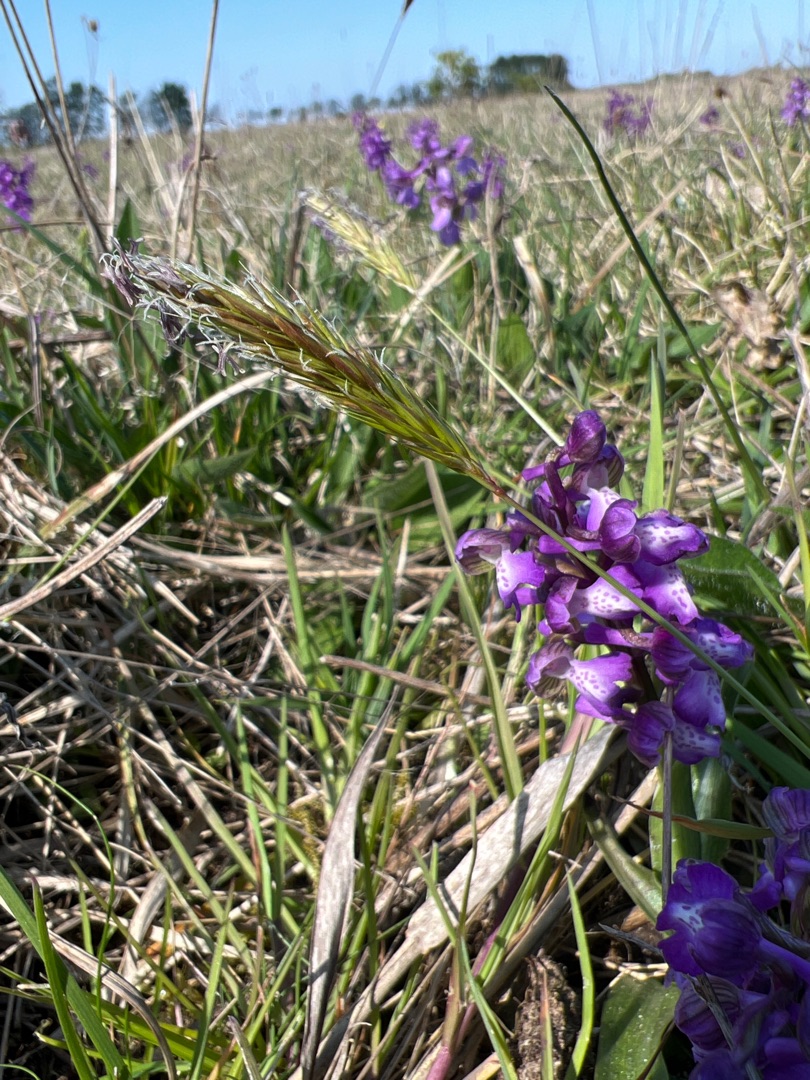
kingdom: Plantae
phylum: Tracheophyta
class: Liliopsida
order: Poales
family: Poaceae
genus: Anthoxanthum
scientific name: Anthoxanthum odoratum
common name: Vellugtende gulaks
